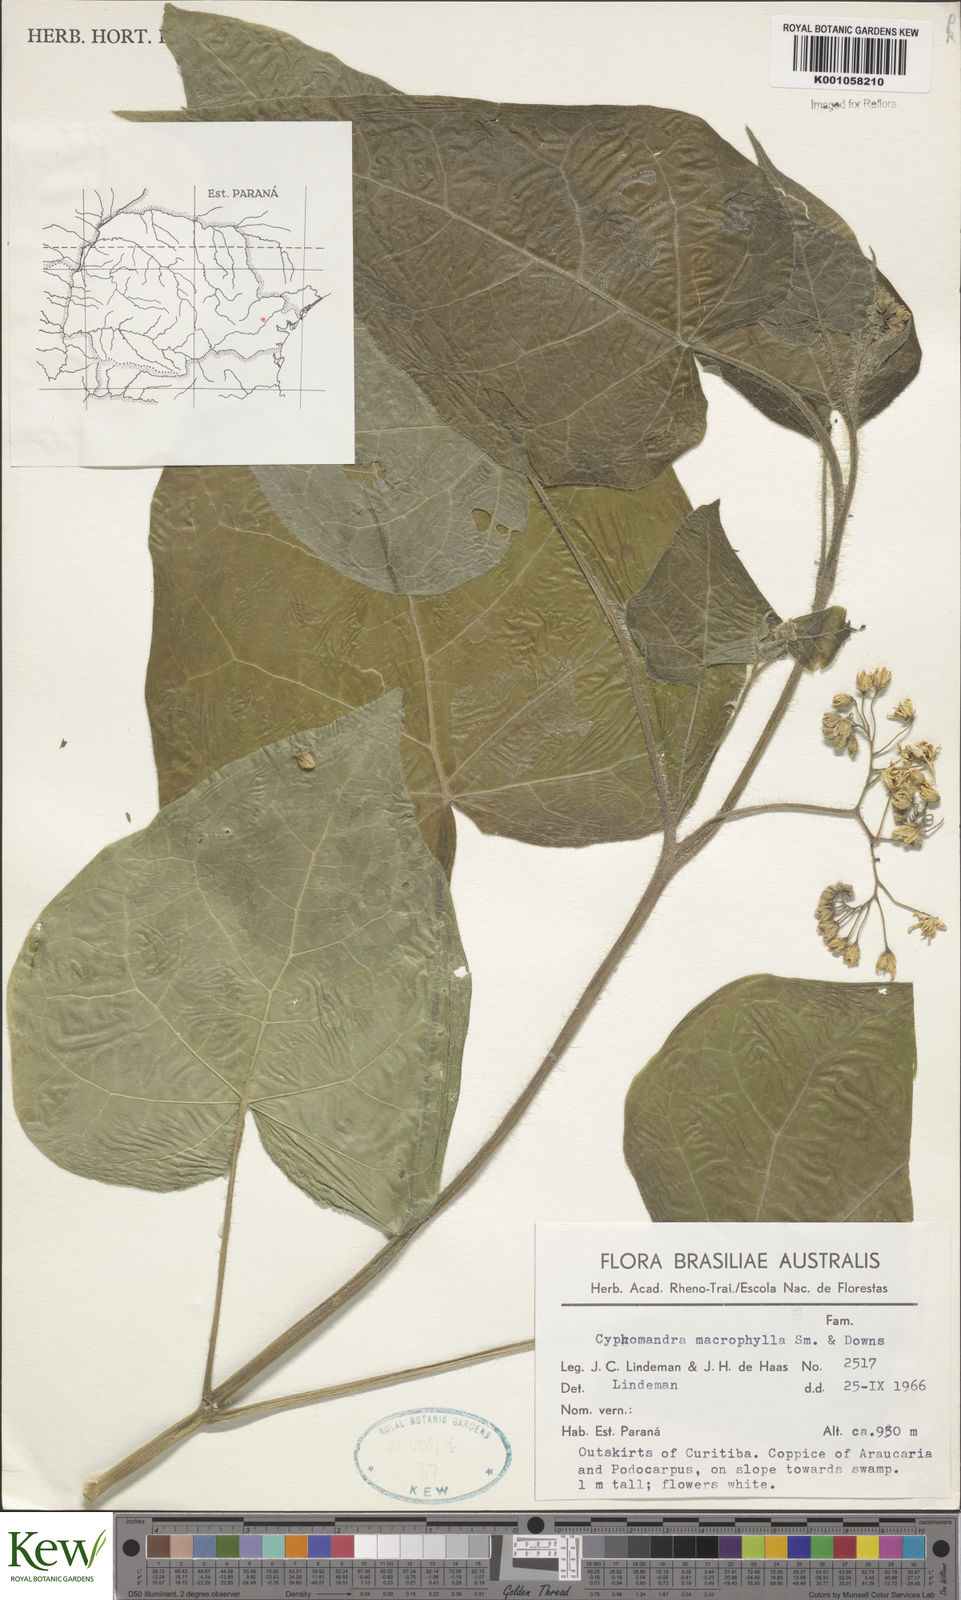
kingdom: Plantae
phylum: Tracheophyta
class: Magnoliopsida
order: Solanales
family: Solanaceae
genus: Solanum
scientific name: Solanum corymbiflorum
